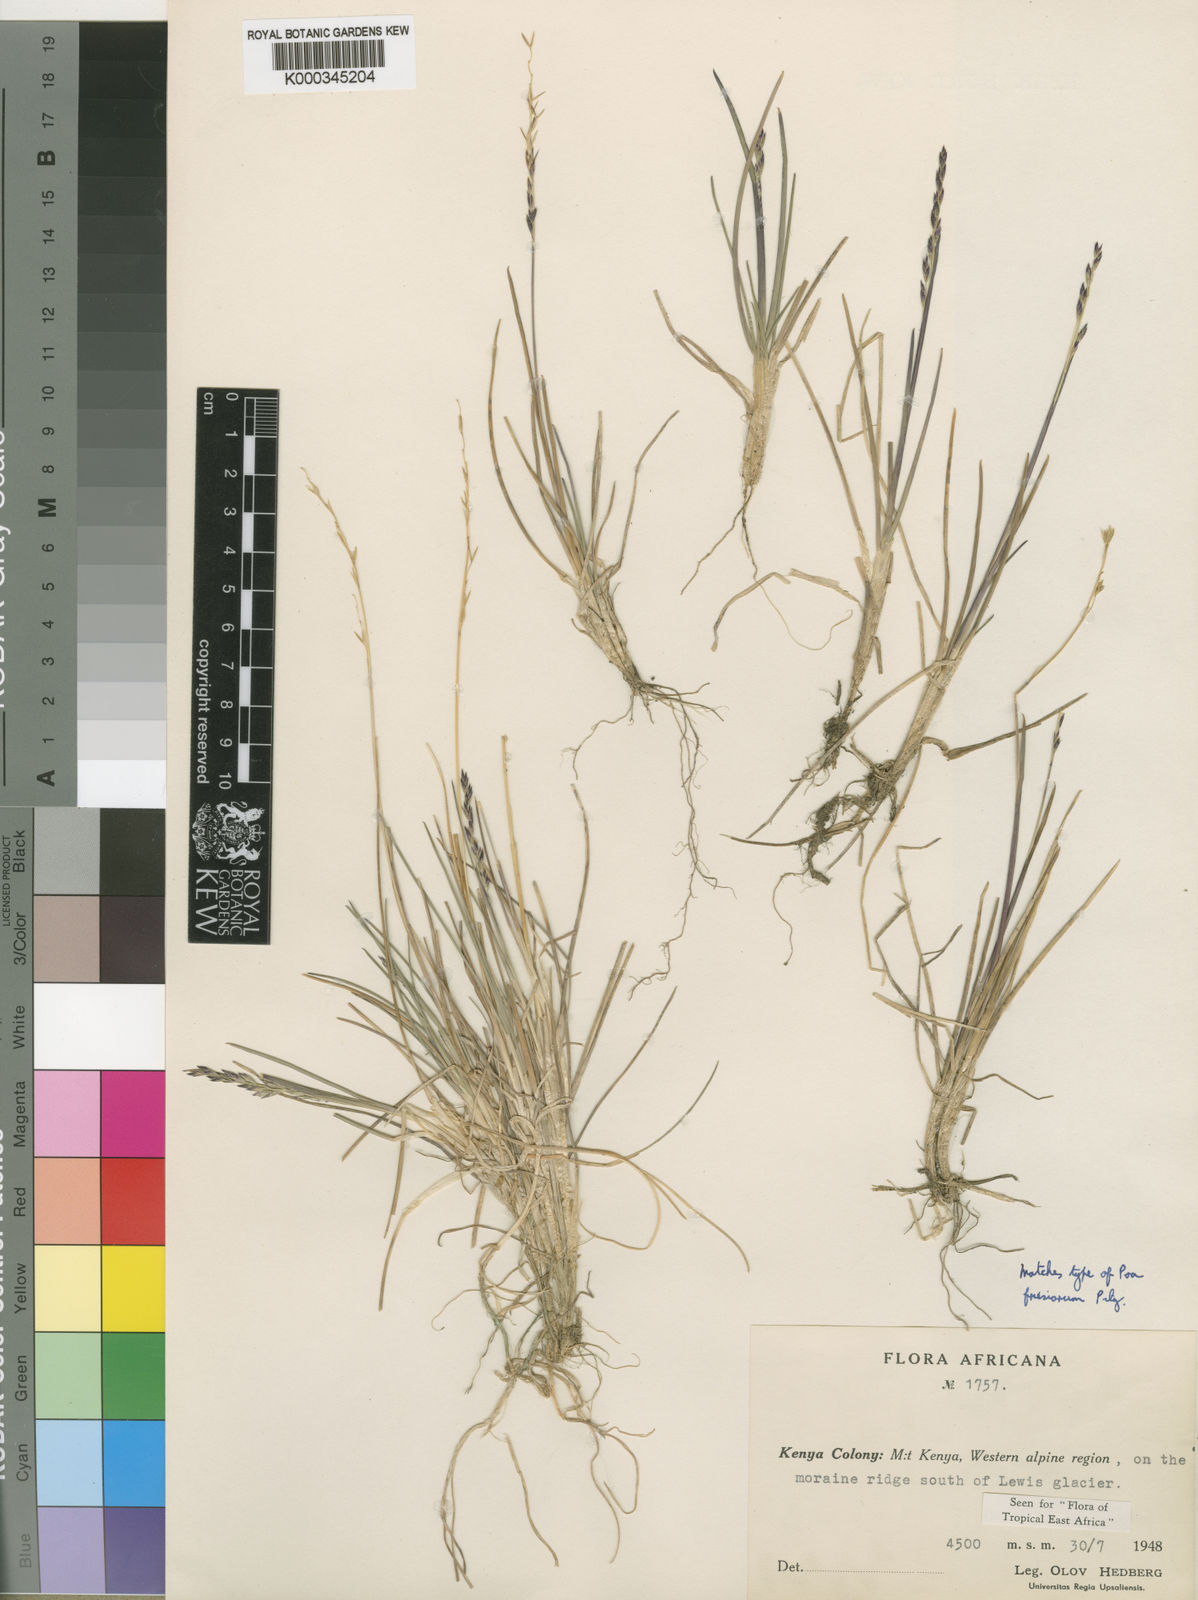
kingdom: Plantae
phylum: Tracheophyta
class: Liliopsida
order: Poales
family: Poaceae
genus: Poa
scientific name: Poa leptoclada
